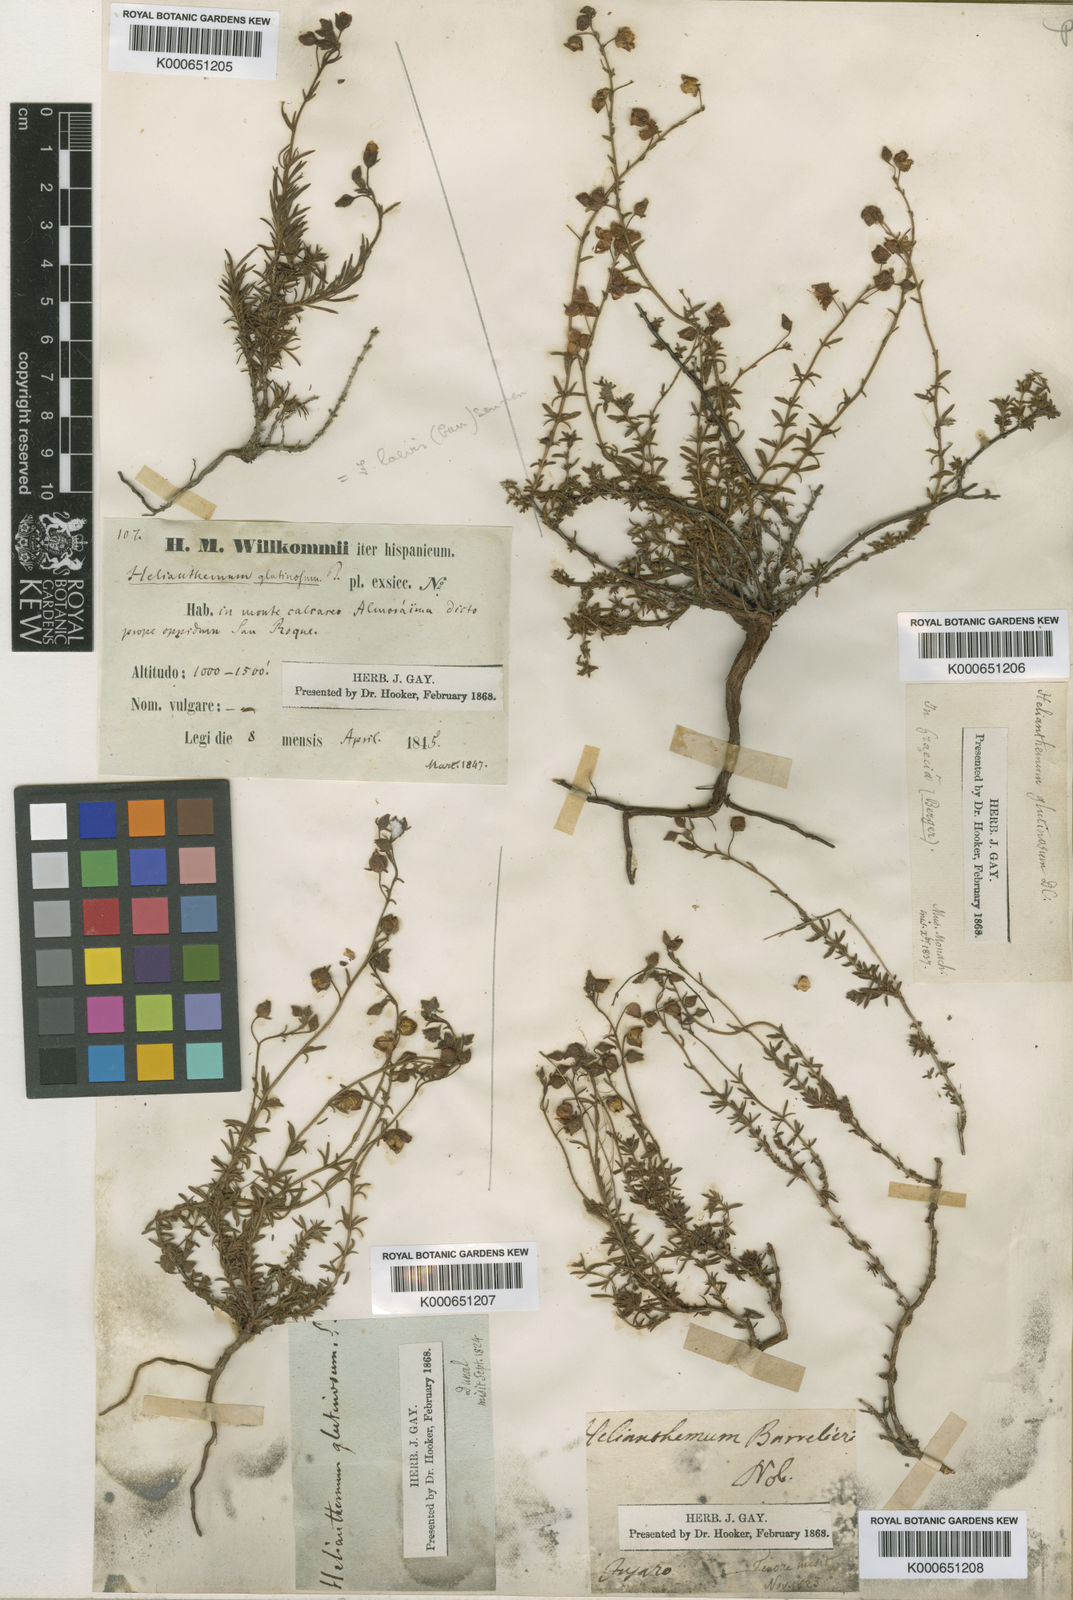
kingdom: Plantae
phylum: Tracheophyta
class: Magnoliopsida
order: Malvales
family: Cistaceae
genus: Fumana
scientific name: Fumana
